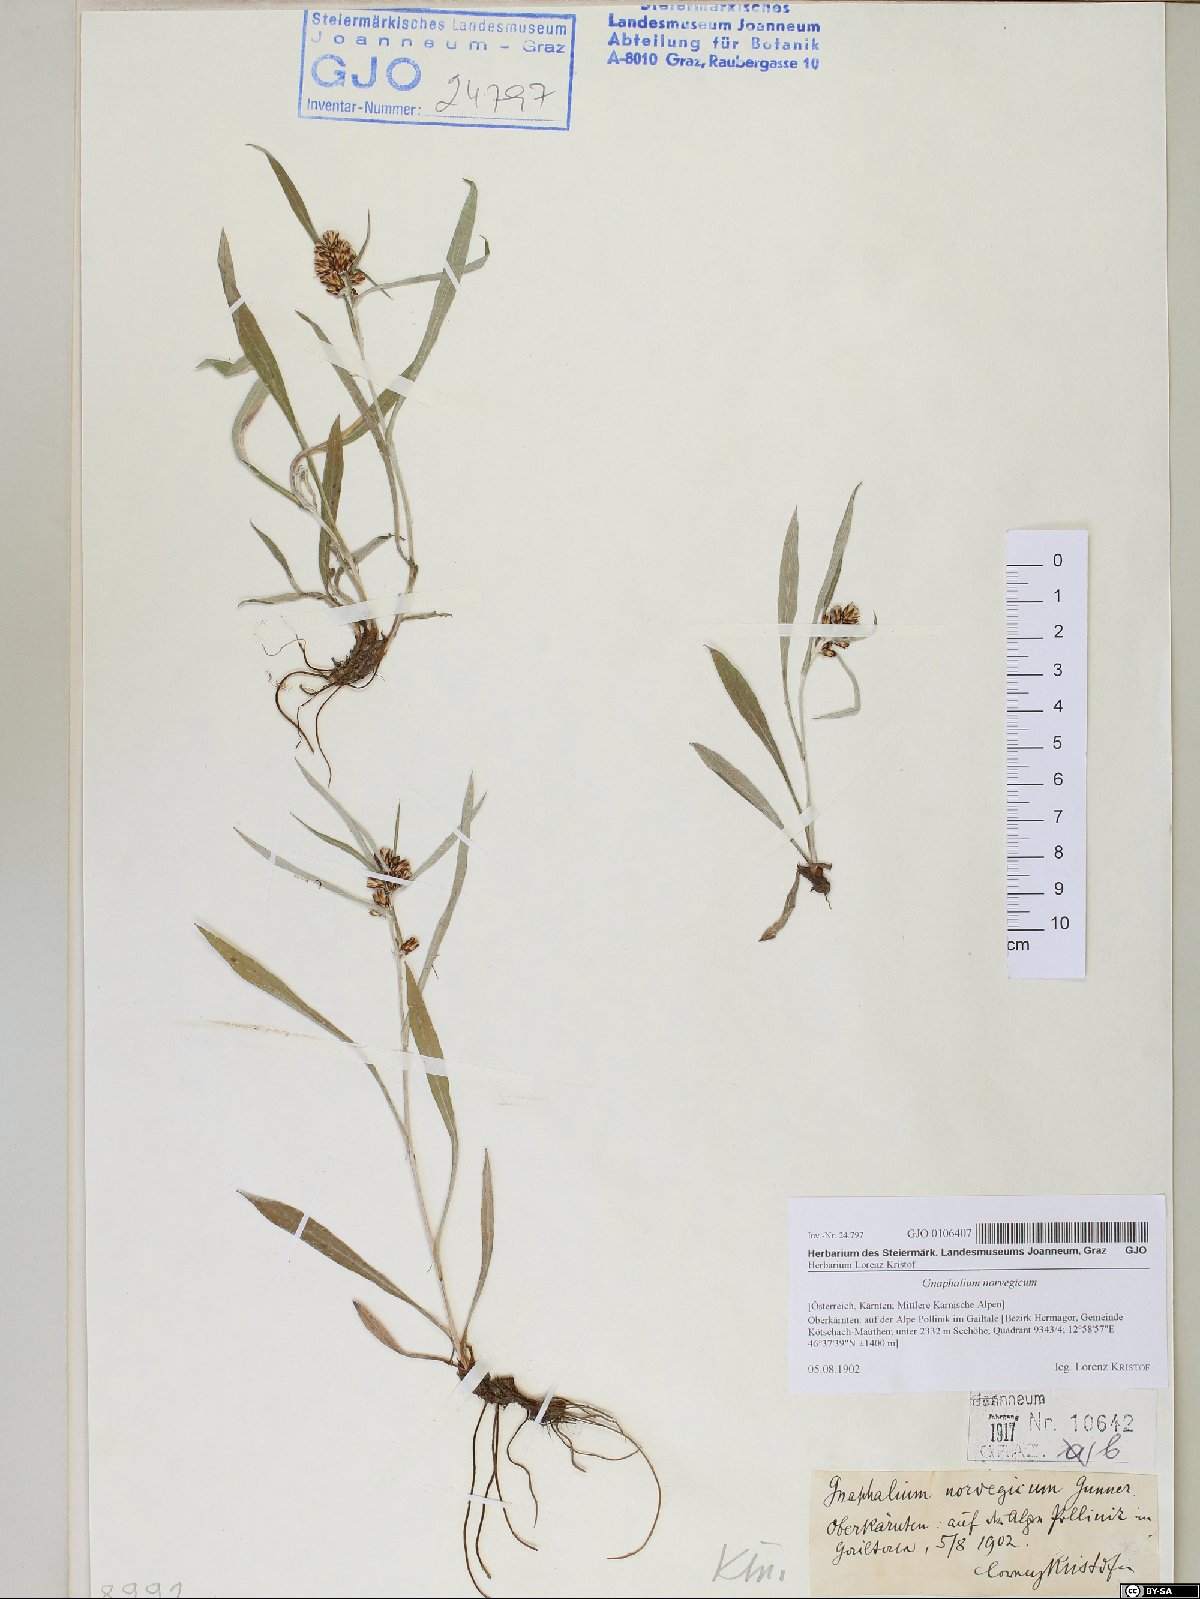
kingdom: Plantae
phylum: Tracheophyta
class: Magnoliopsida
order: Asterales
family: Asteraceae
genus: Omalotheca
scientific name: Omalotheca norvegica
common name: Norwegian arctic-cudweed
